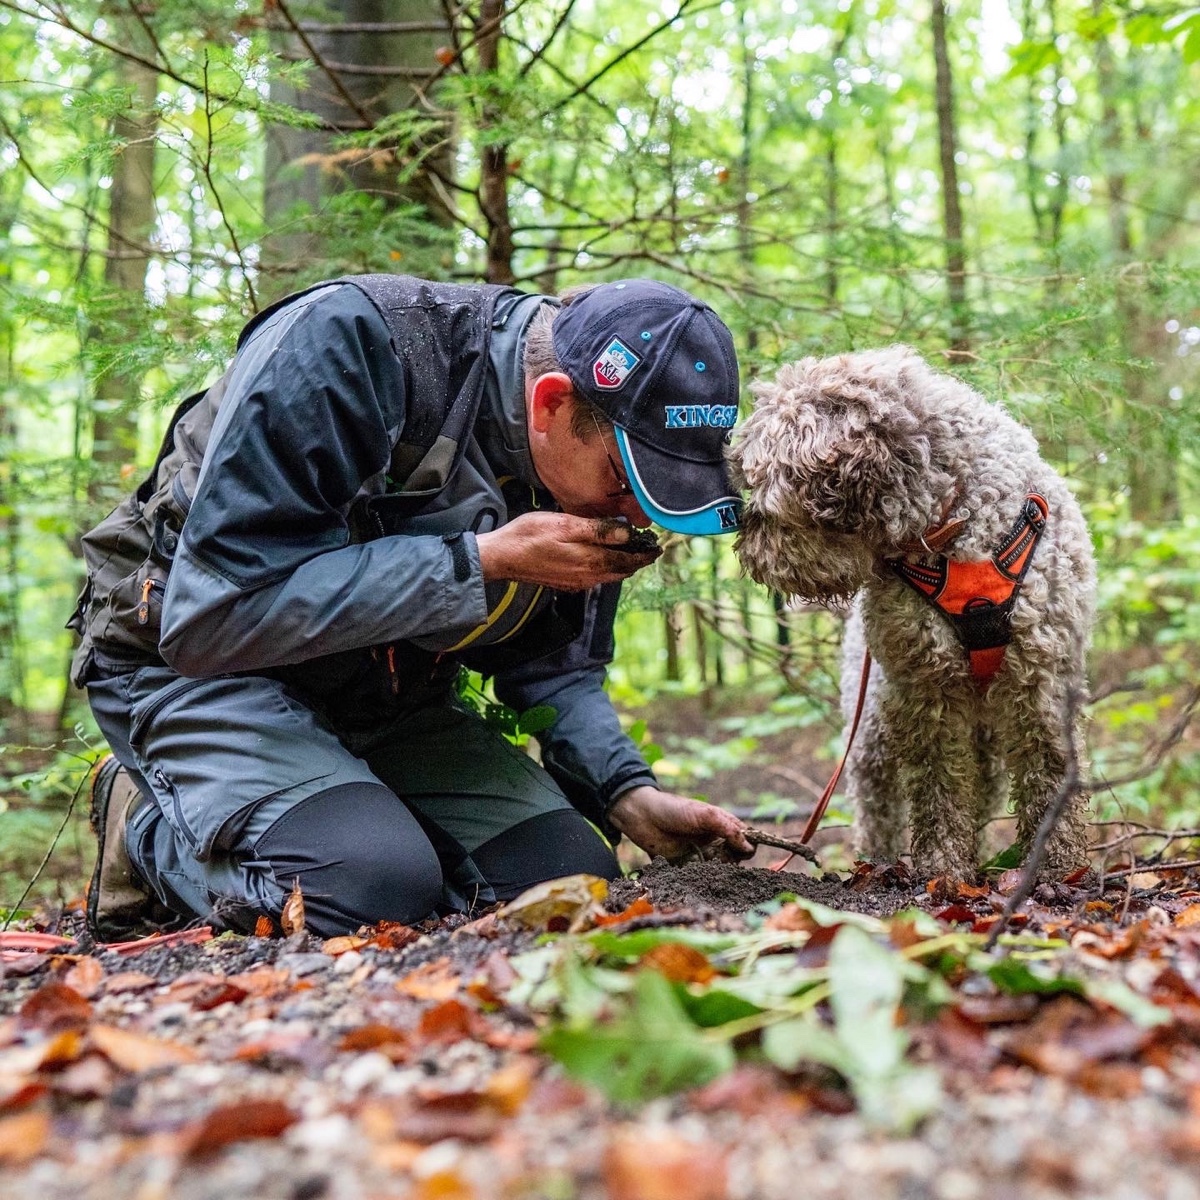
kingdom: Fungi
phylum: Ascomycota
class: Pezizomycetes
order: Pezizales
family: Tuberaceae
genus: Tuber
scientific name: Tuber fulgens
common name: navle-trøffel
